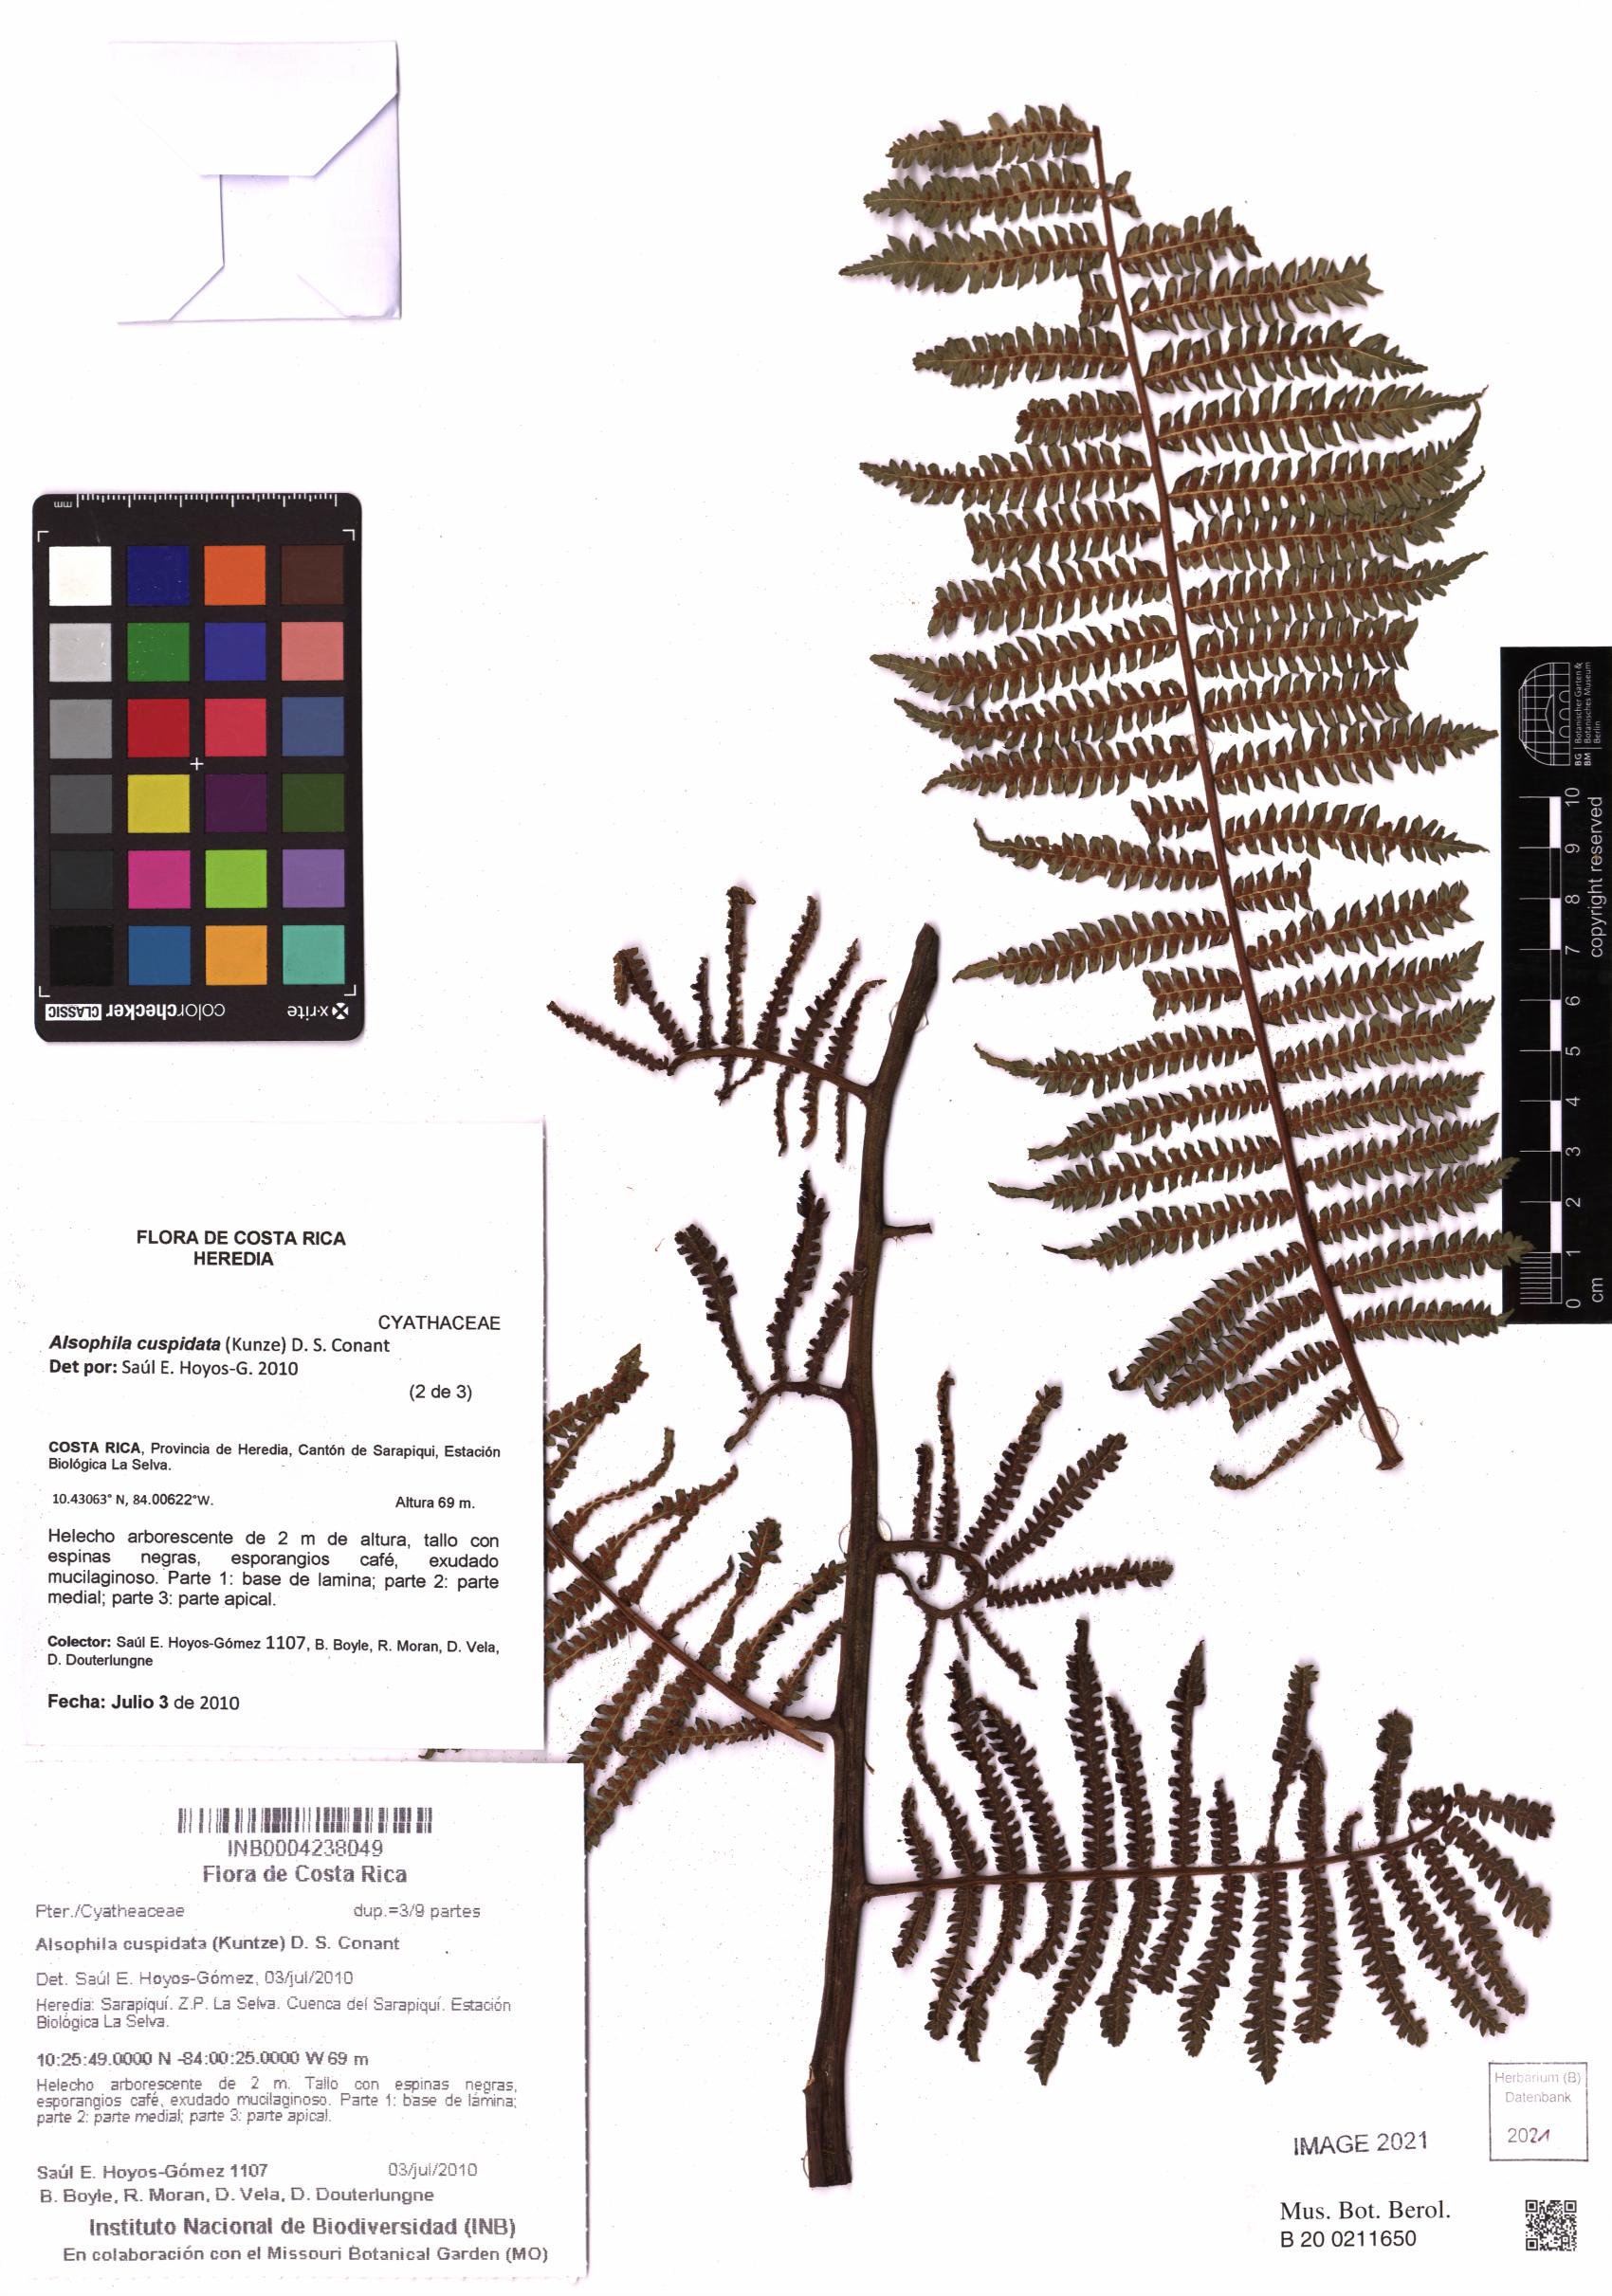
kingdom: Plantae
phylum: Tracheophyta
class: Polypodiopsida
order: Cyatheales
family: Cyatheaceae
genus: Alsophila
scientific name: Alsophila cuspidata
